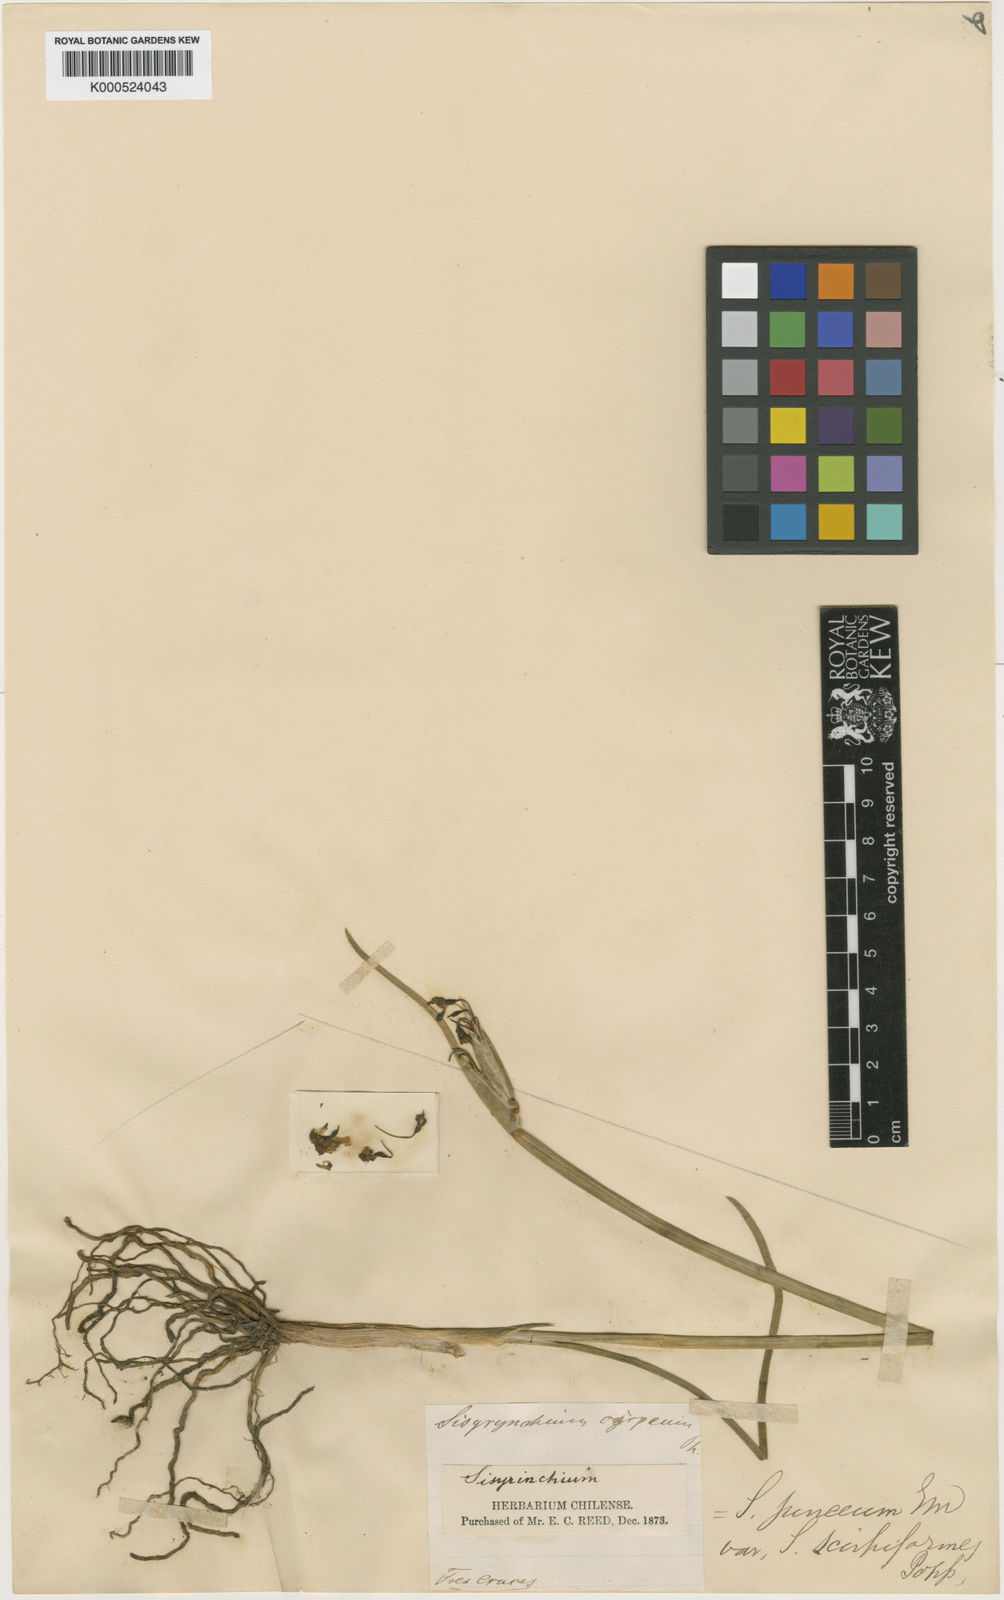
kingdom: Plantae
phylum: Tracheophyta
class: Liliopsida
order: Asparagales
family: Iridaceae
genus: Olsynium
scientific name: Olsynium junceum
